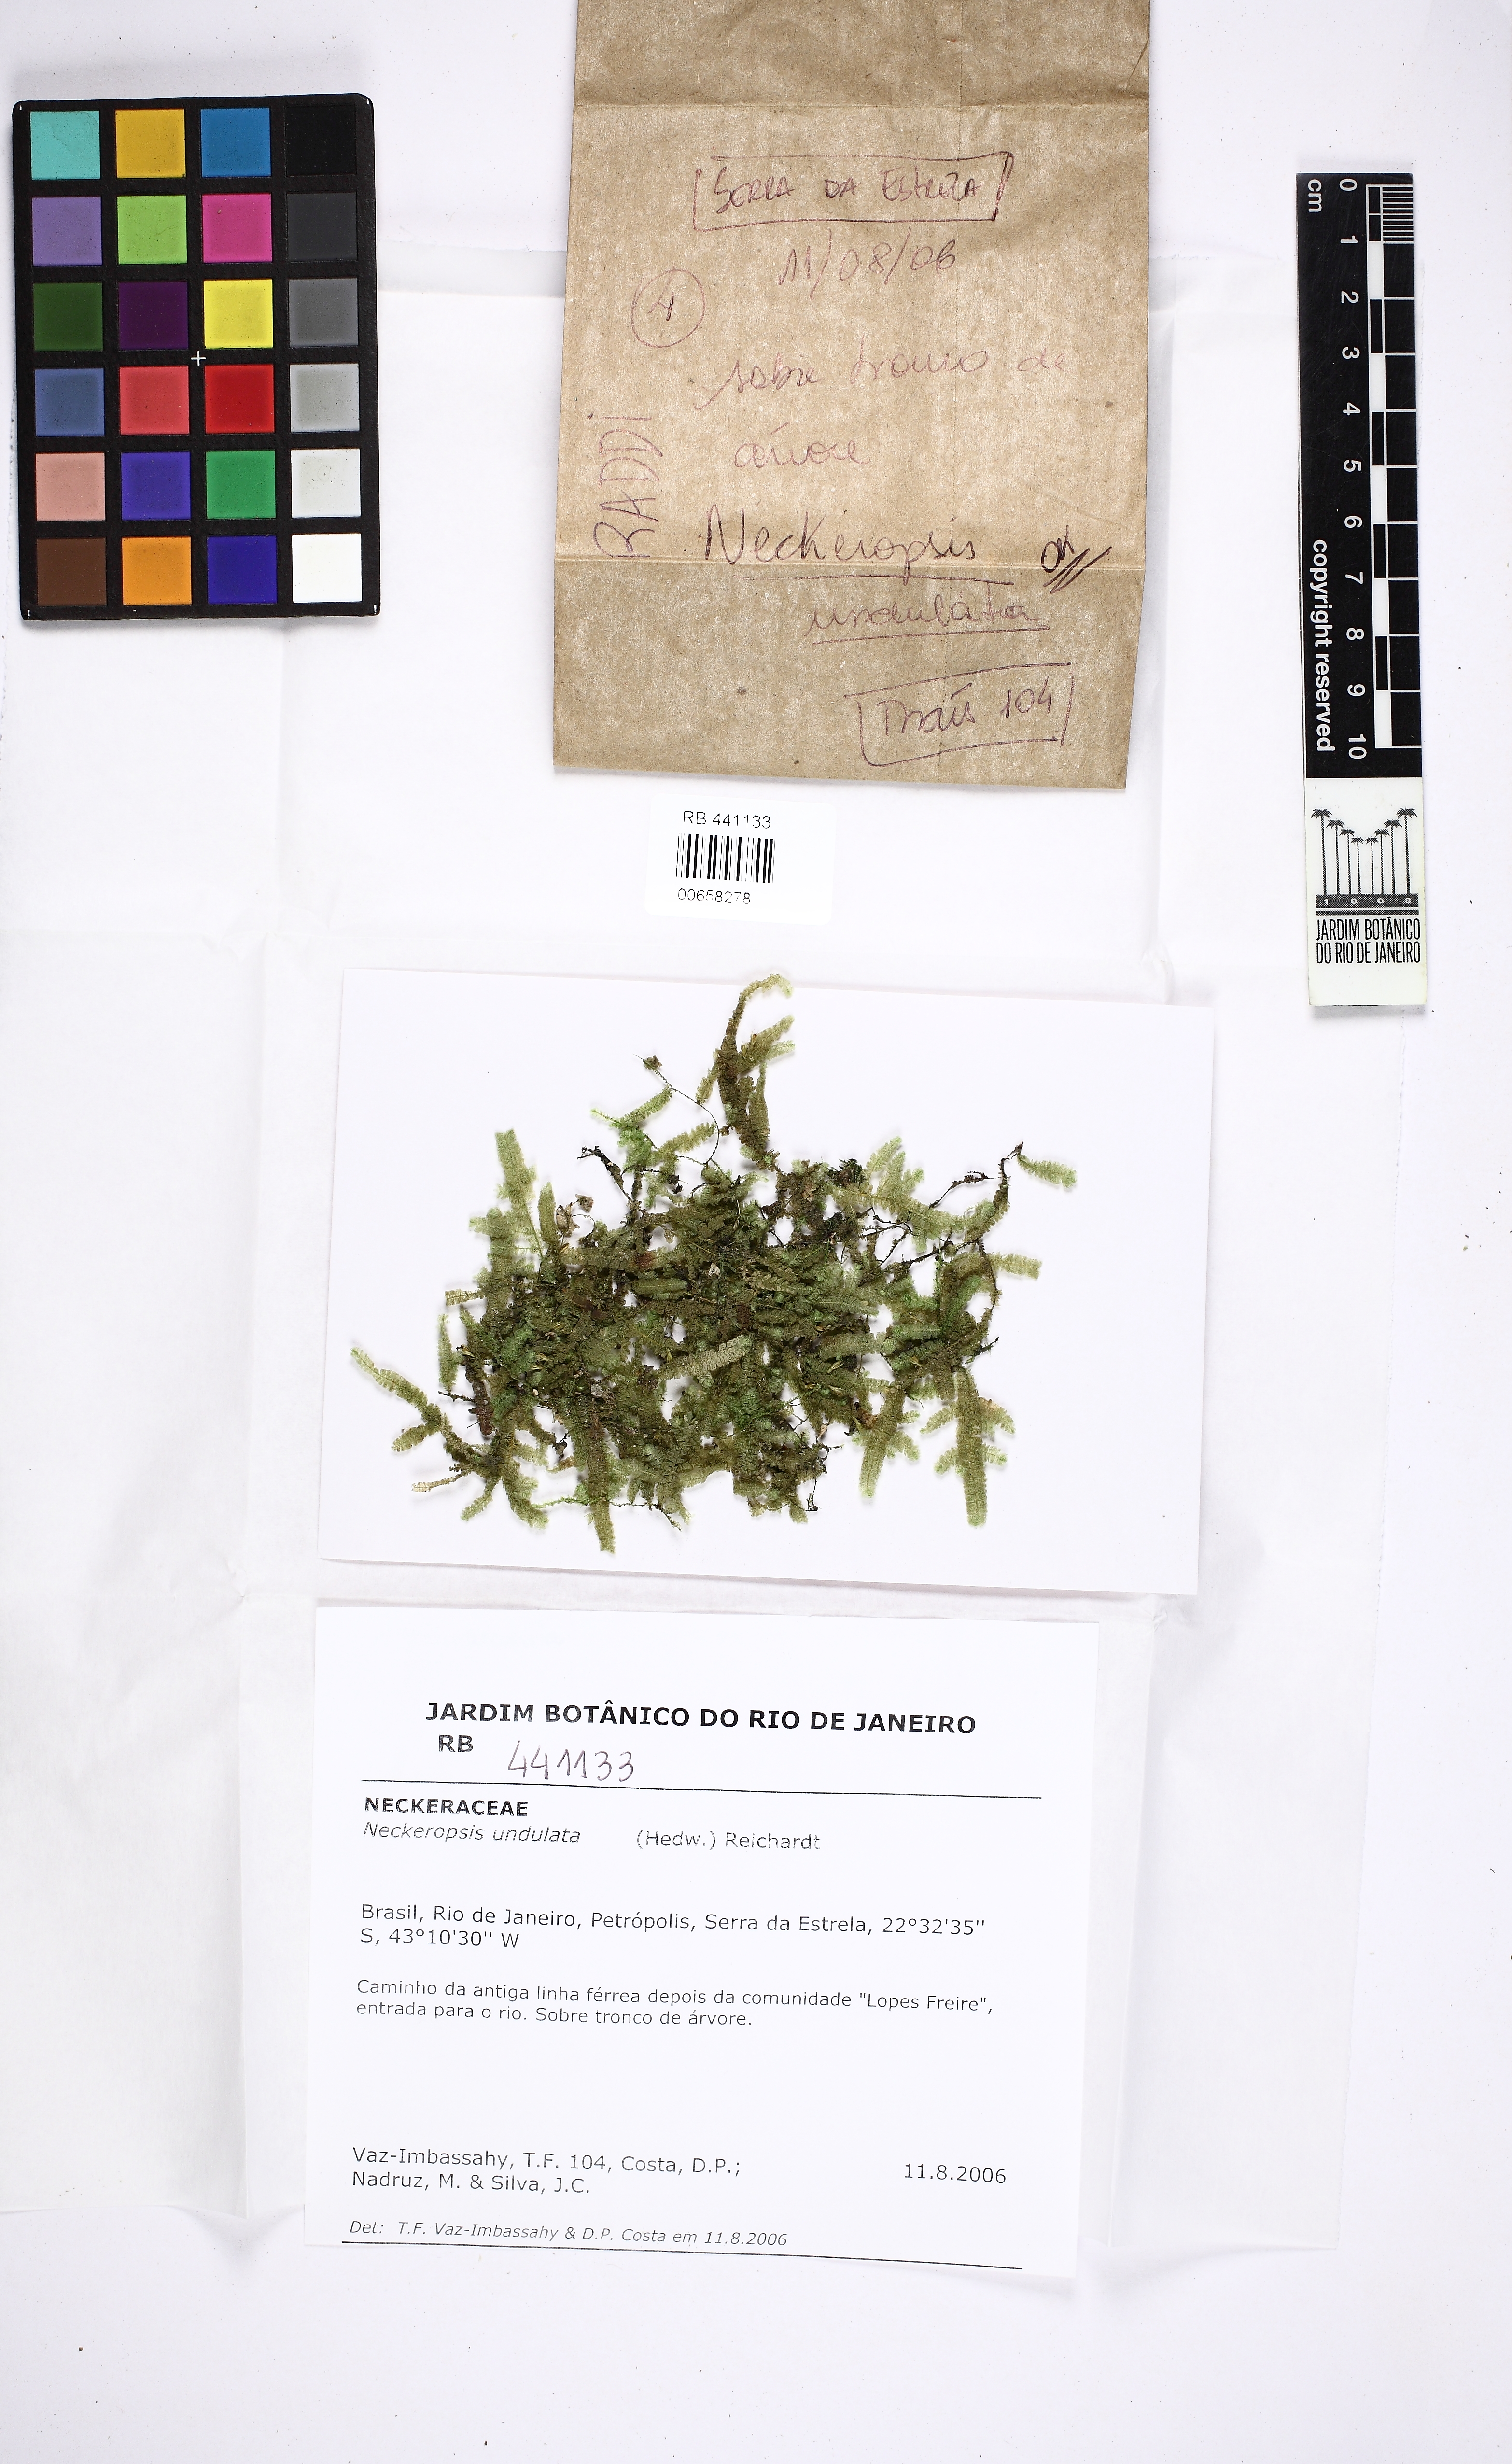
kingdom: Plantae
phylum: Bryophyta
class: Bryopsida
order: Hypnales
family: Neckeraceae
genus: Neckeropsis
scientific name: Neckeropsis undulata
